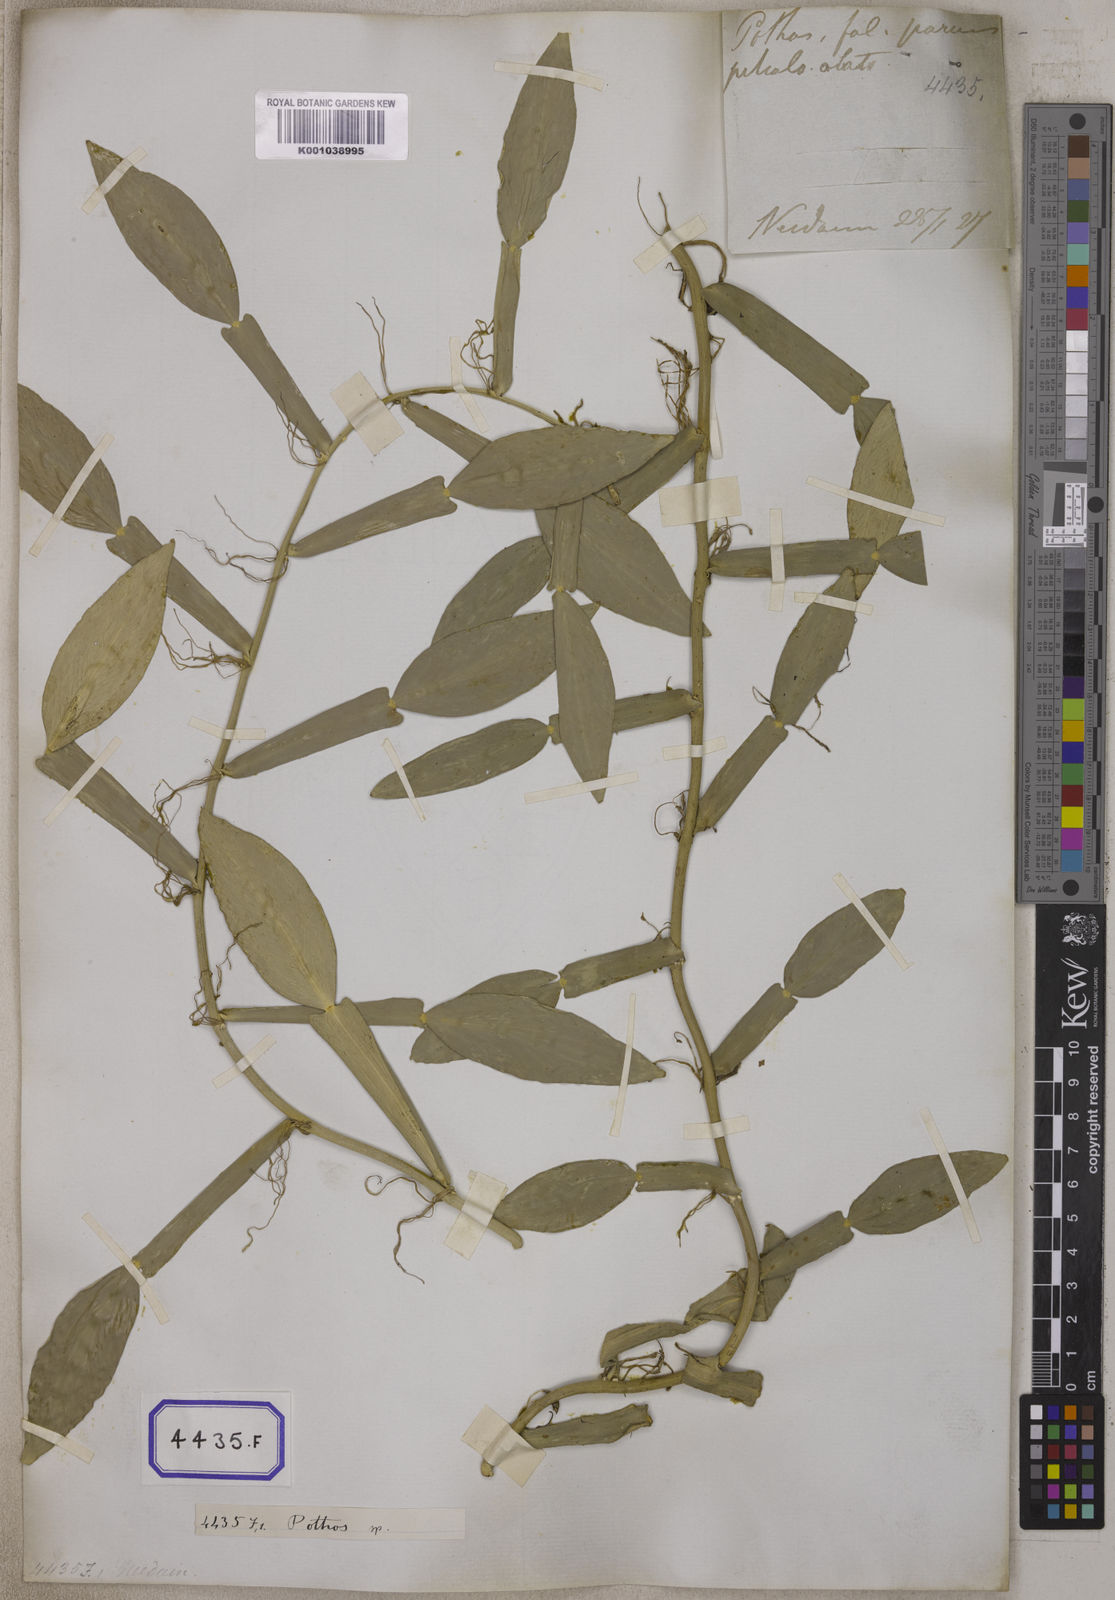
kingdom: Plantae
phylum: Tracheophyta
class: Liliopsida
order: Alismatales
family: Araceae
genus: Pothos
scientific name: Pothos scandens
